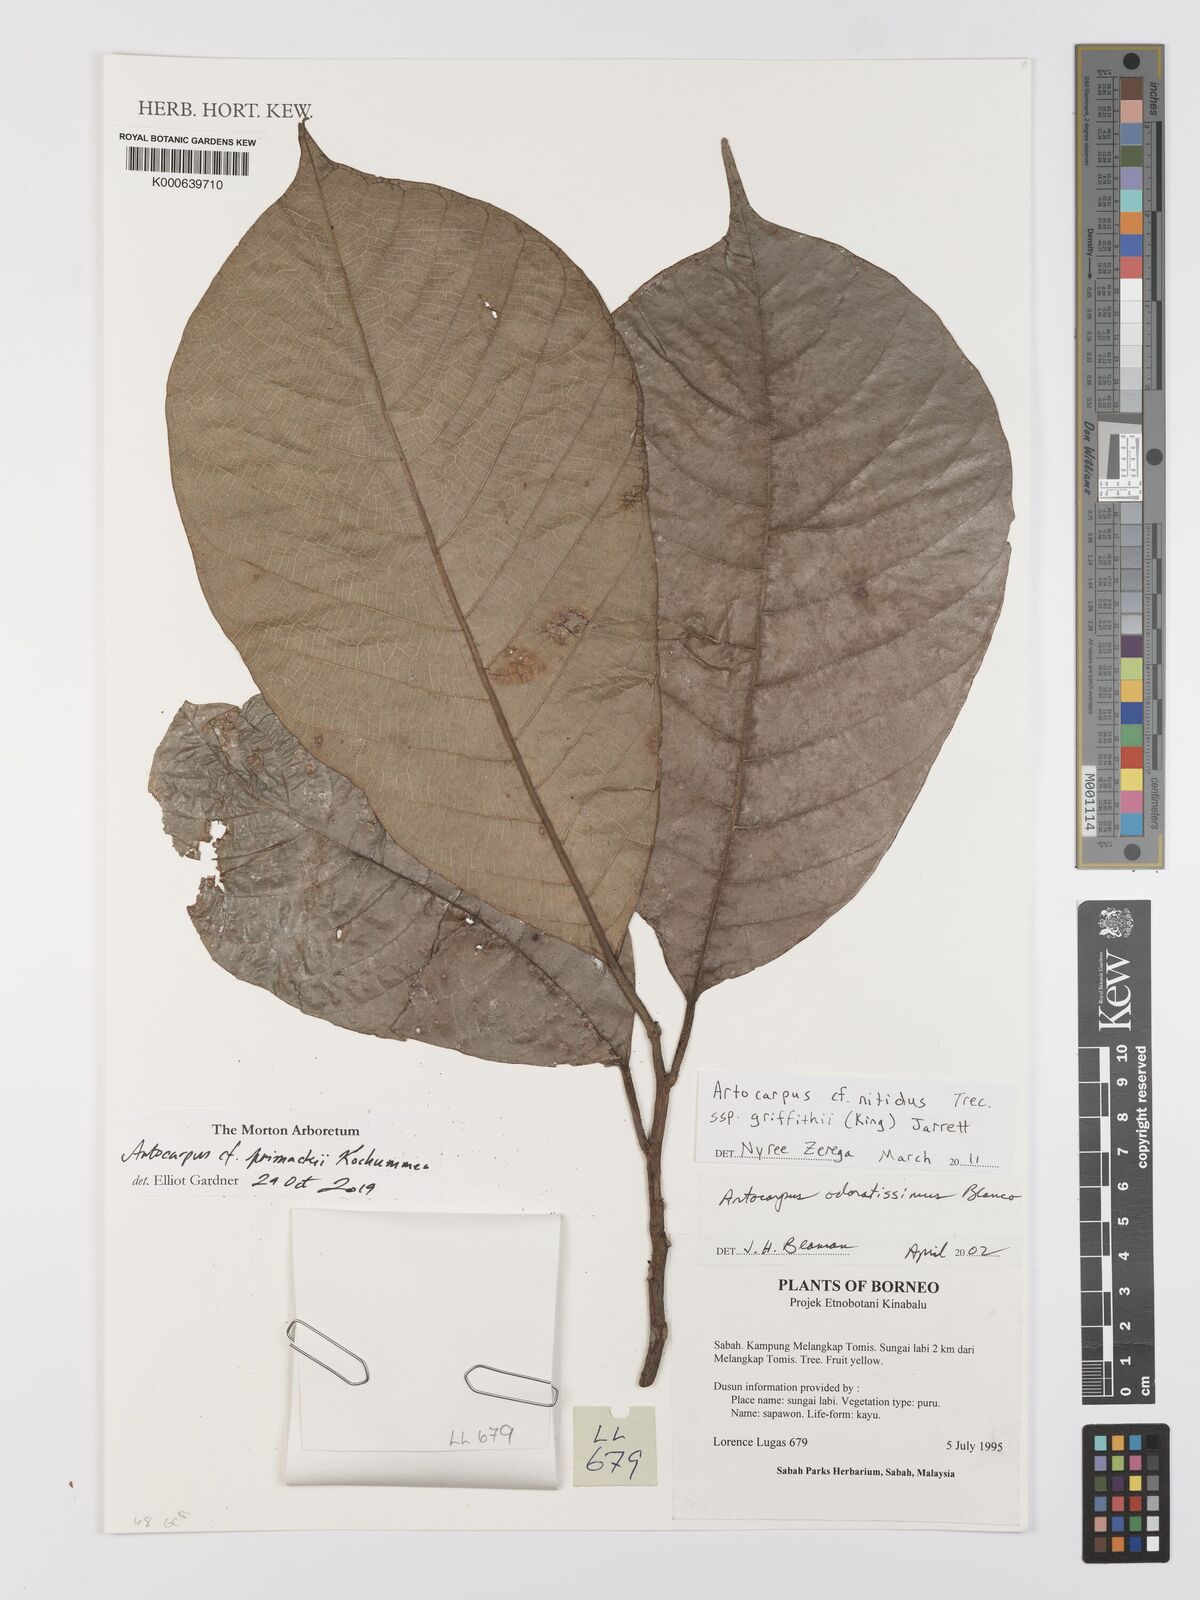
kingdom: Plantae
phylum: Tracheophyta
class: Magnoliopsida
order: Rosales
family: Moraceae
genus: Artocarpus
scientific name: Artocarpus lamellosus
